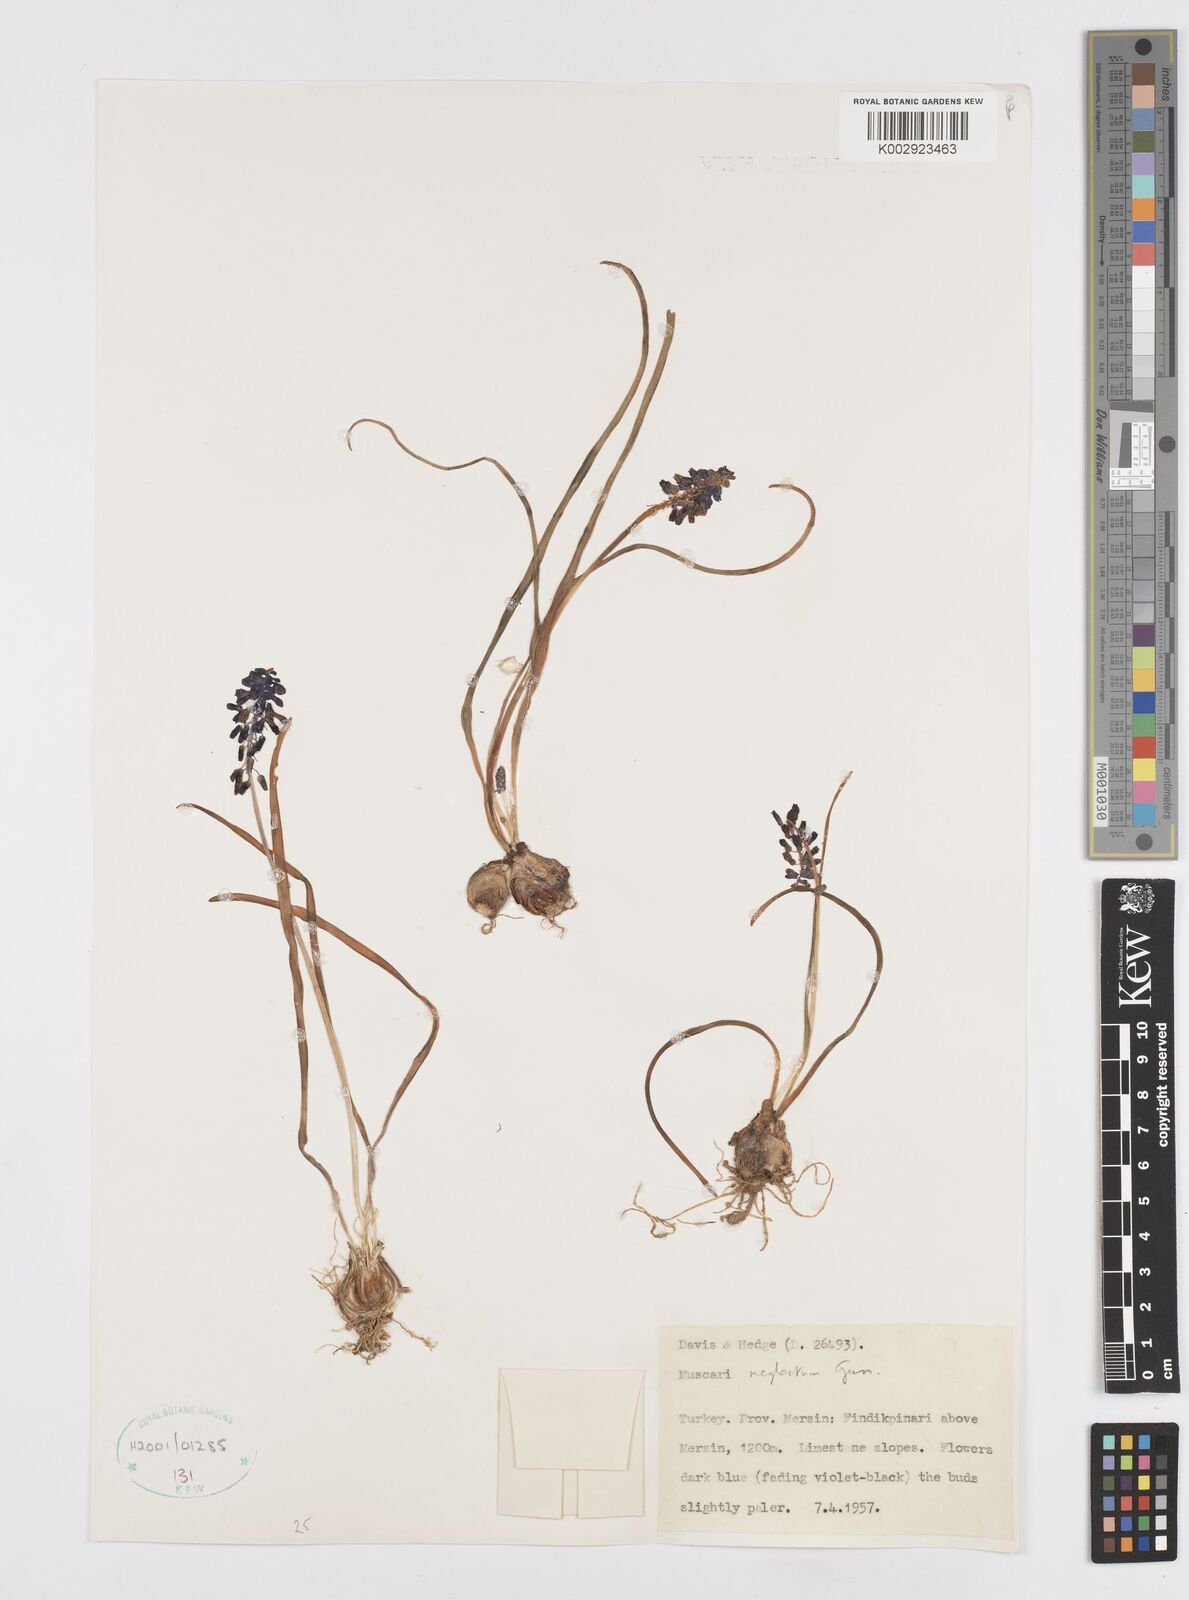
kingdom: Plantae
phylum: Tracheophyta
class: Liliopsida
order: Asparagales
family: Asparagaceae
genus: Muscari
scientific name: Muscari neglectum
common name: Grape-hyacinth
